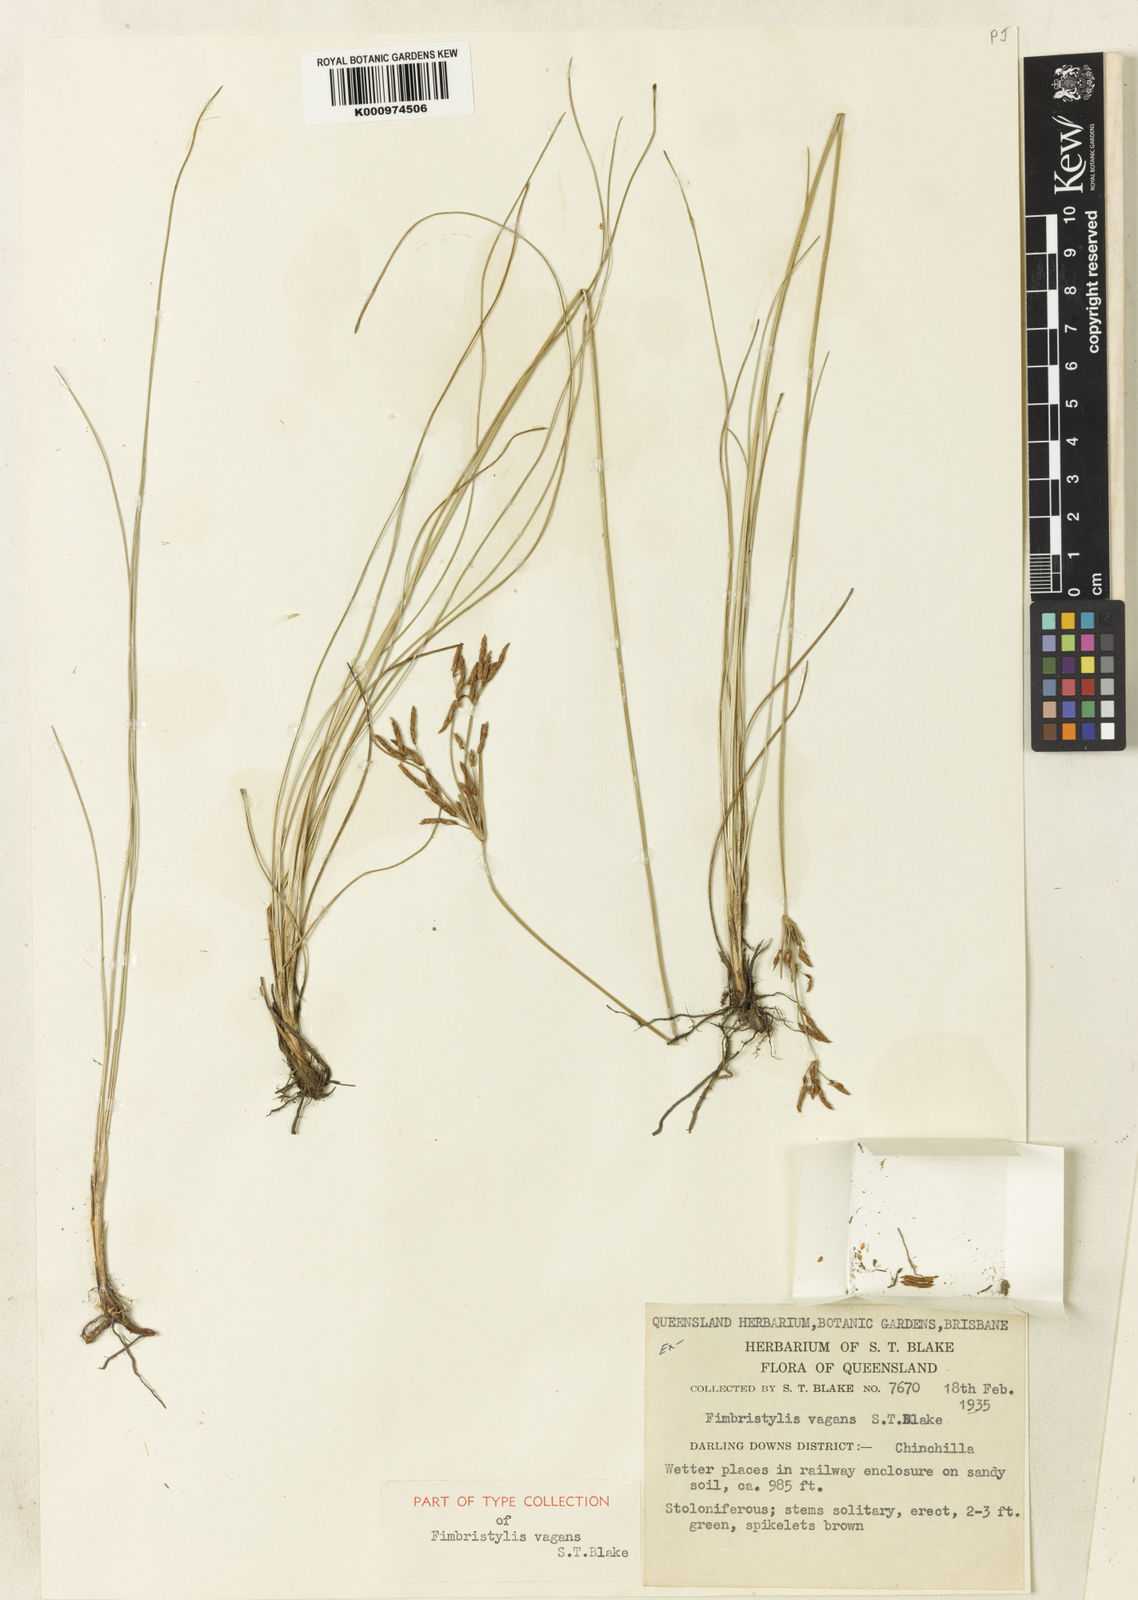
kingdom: Plantae
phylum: Tracheophyta
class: Liliopsida
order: Poales
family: Cyperaceae
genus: Fimbristylis
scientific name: Fimbristylis vagans
